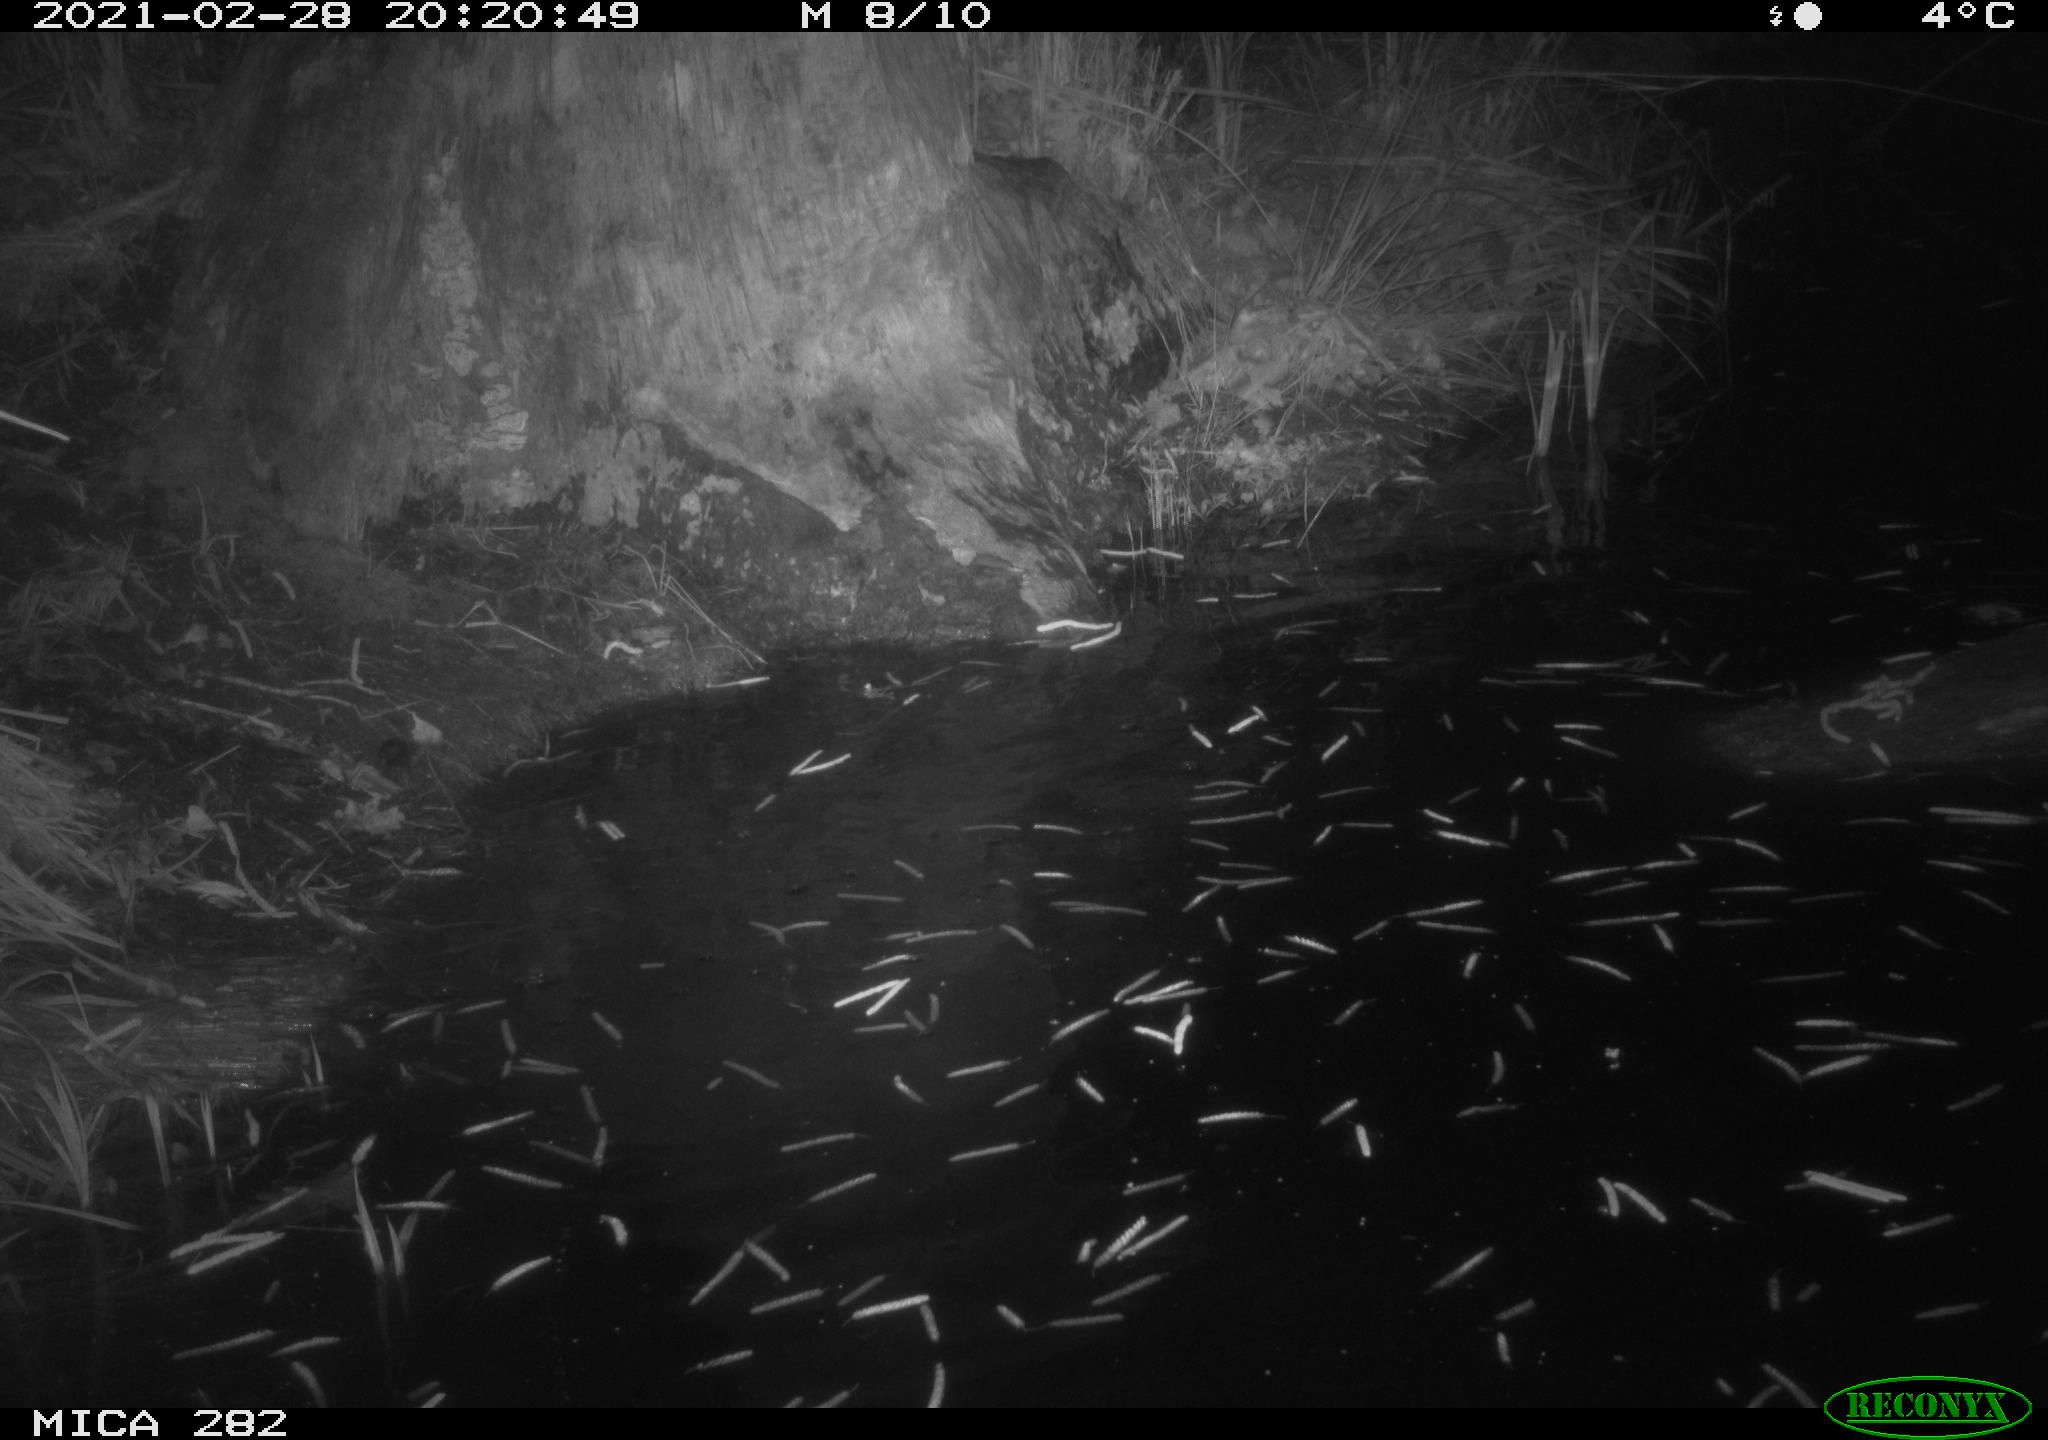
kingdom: Animalia
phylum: Chordata
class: Mammalia
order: Rodentia
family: Castoridae
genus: Castor
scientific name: Castor fiber
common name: Eurasian beaver
